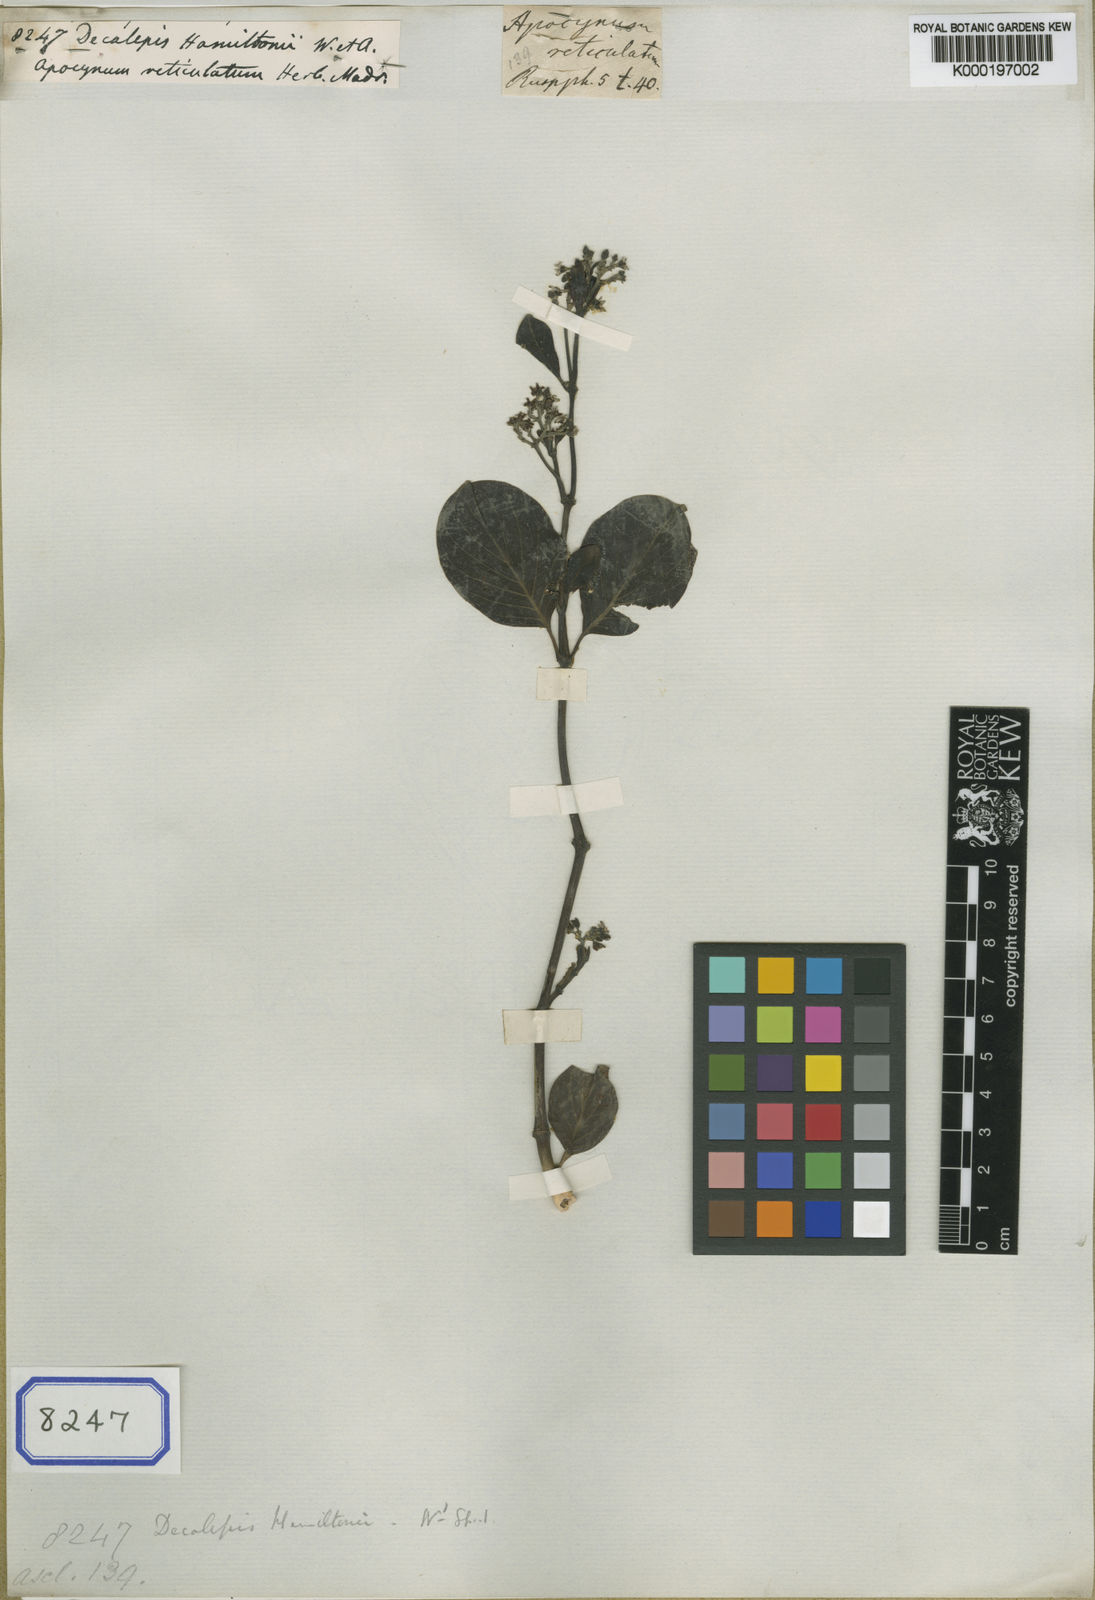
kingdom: Plantae
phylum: Tracheophyta
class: Magnoliopsida
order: Gentianales
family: Apocynaceae
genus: Decalepis
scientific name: Decalepis hamiltonii
